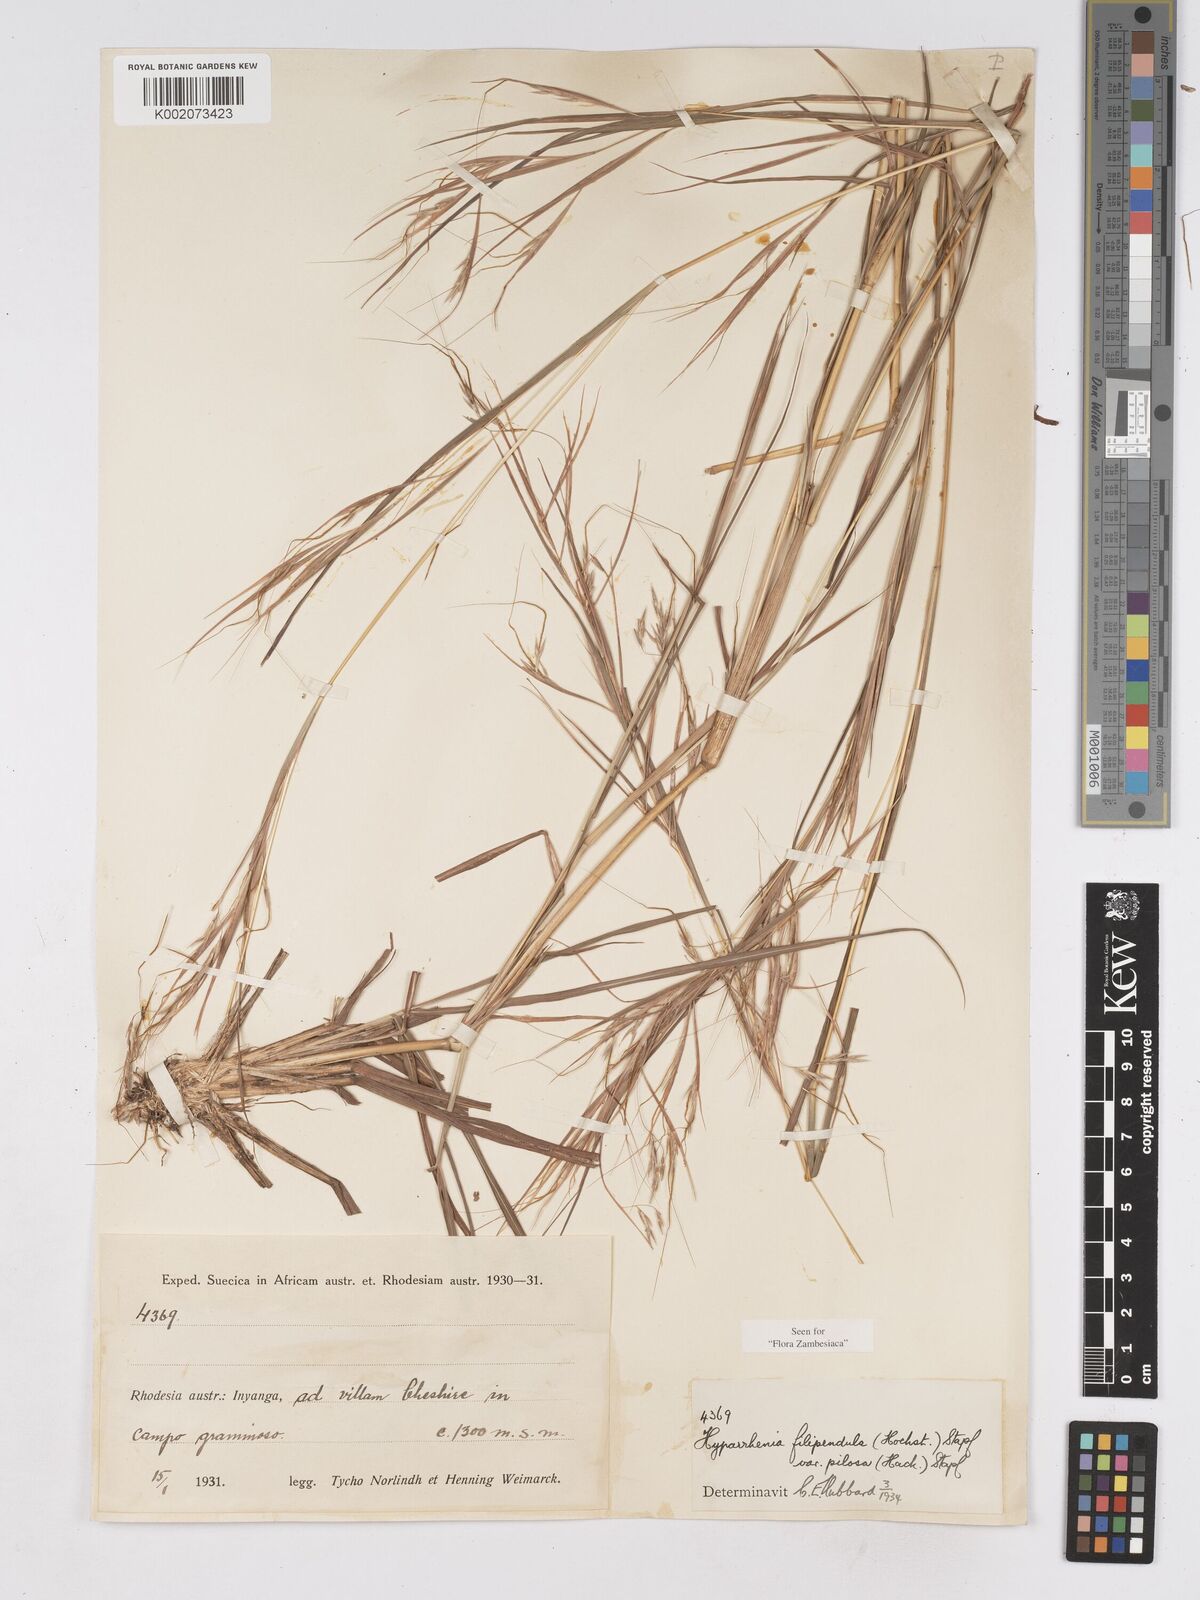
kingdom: Plantae
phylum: Tracheophyta
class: Liliopsida
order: Poales
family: Poaceae
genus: Hyparrhenia
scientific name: Hyparrhenia filipendula
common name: Tambookie grass
